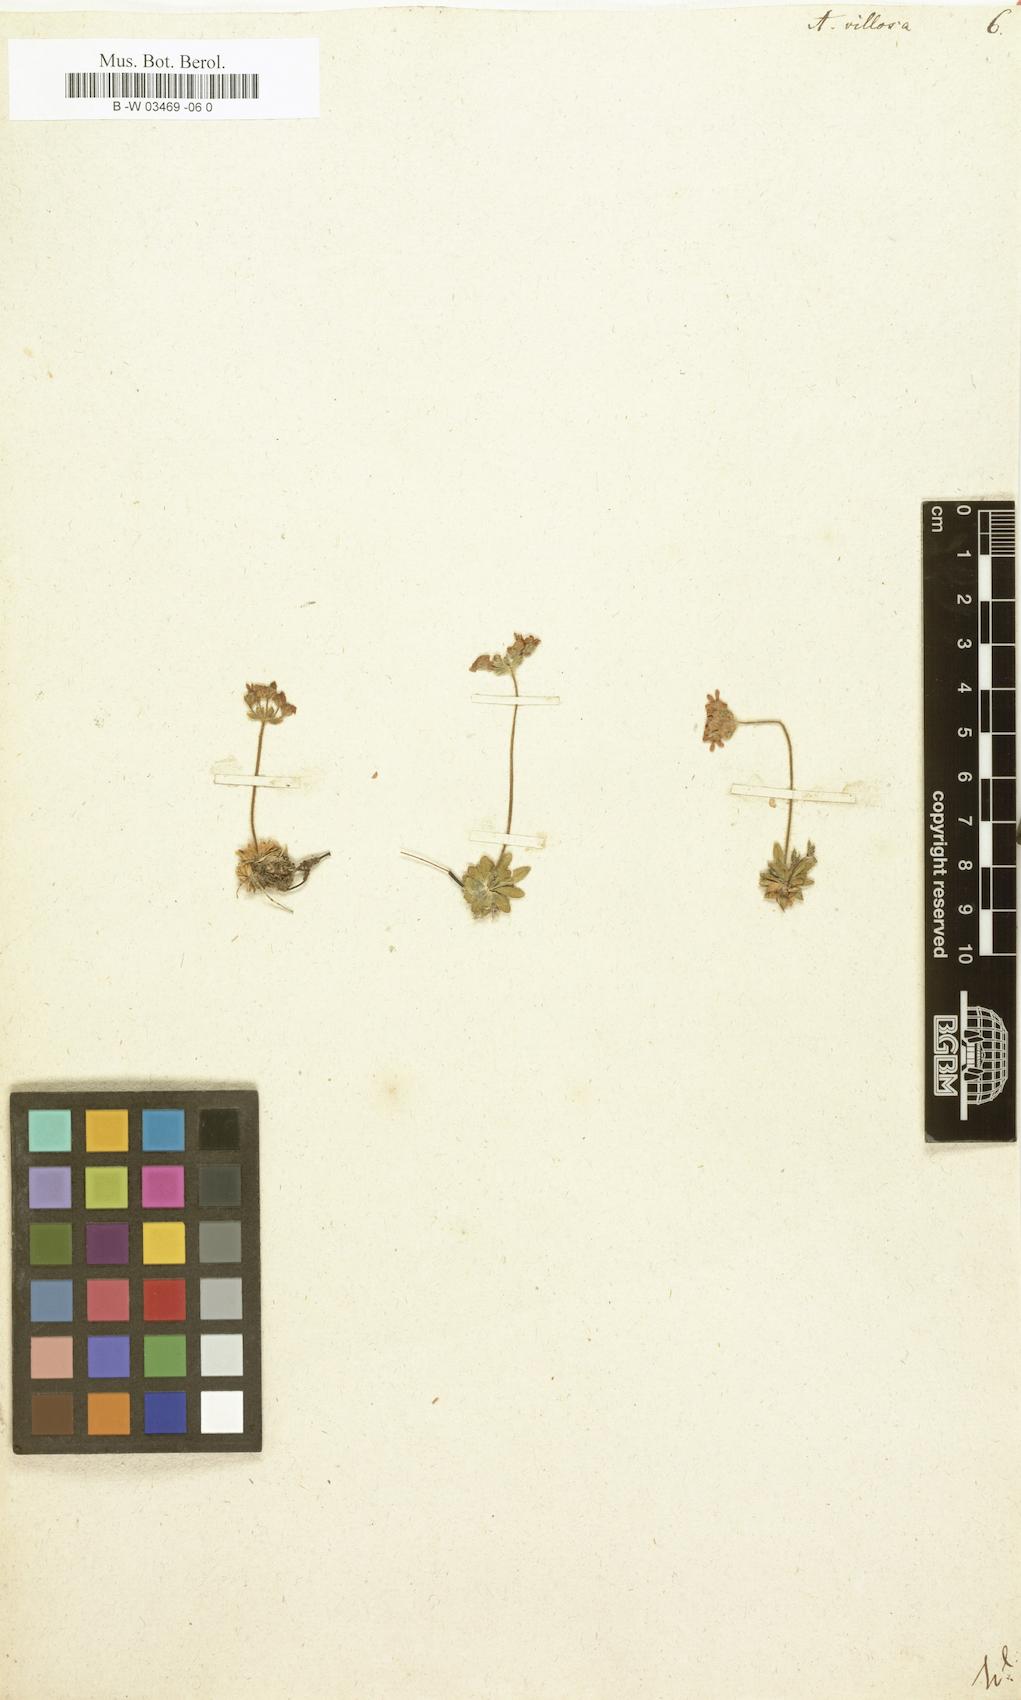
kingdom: Plantae
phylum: Tracheophyta
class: Magnoliopsida
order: Ericales
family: Primulaceae
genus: Androsace
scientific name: Androsace villosa
